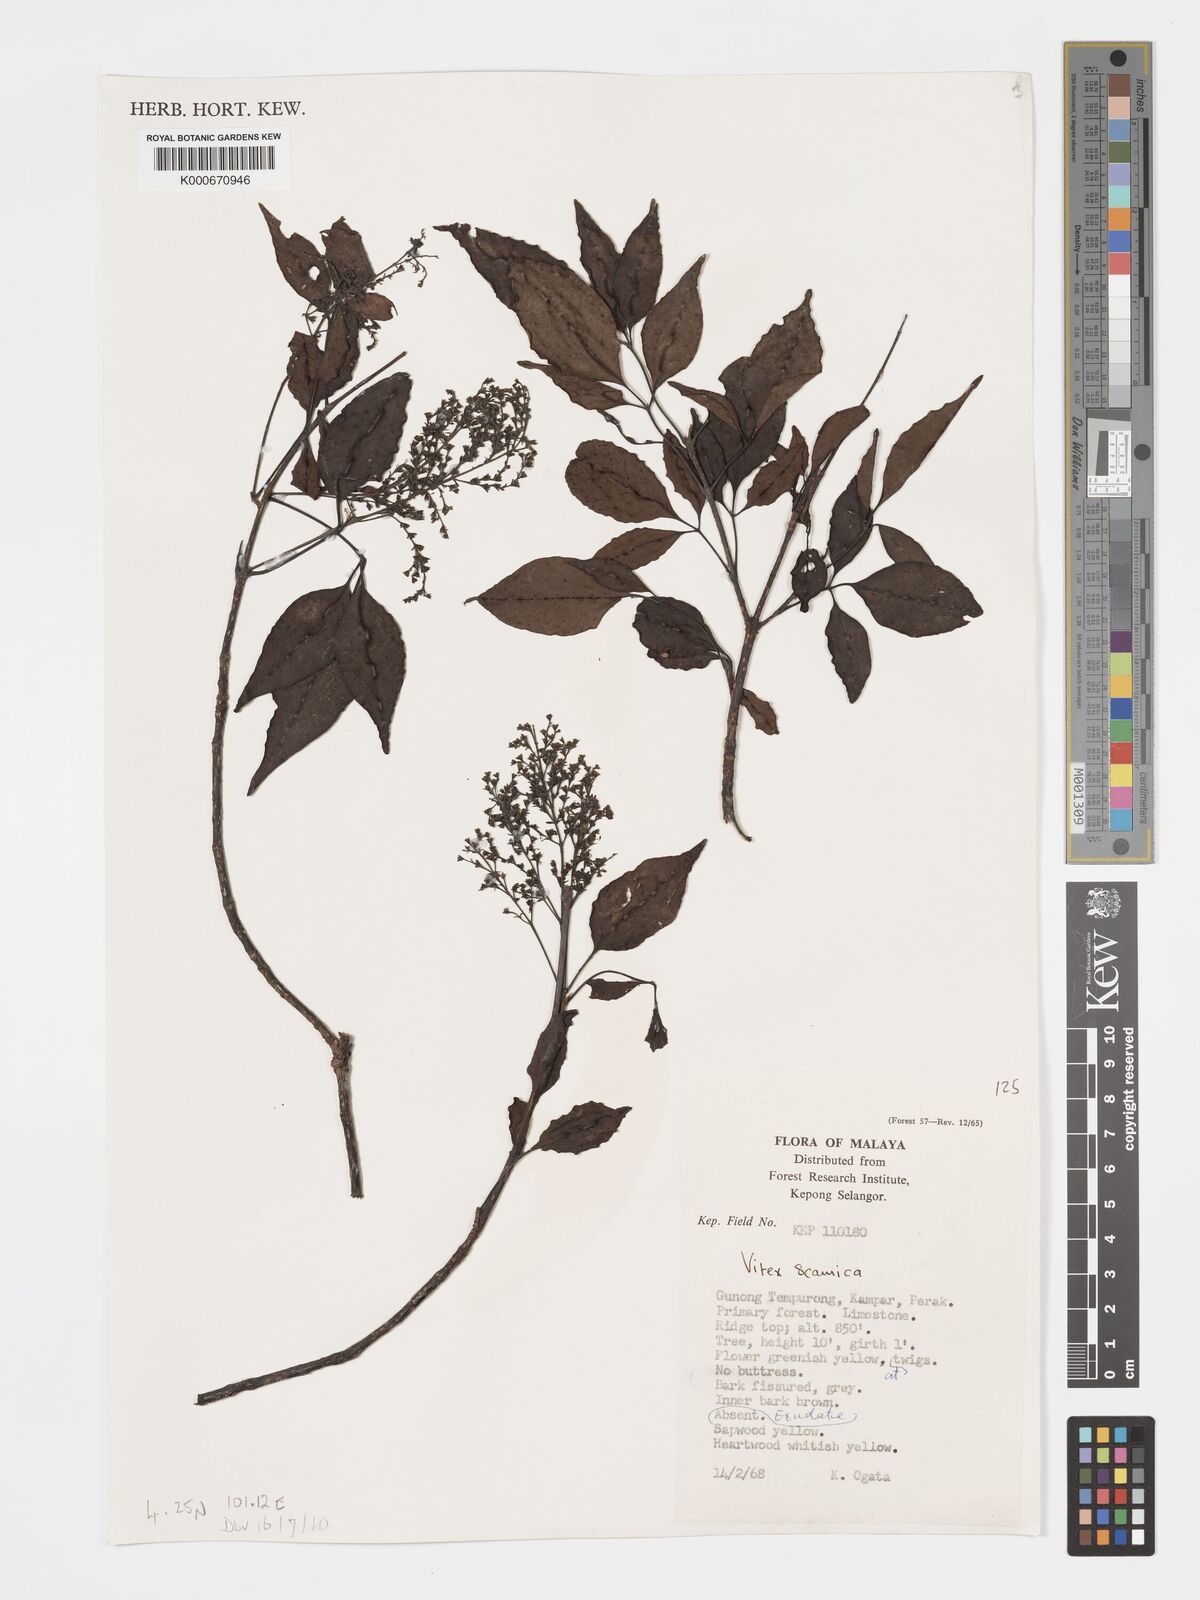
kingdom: Plantae
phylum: Tracheophyta
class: Magnoliopsida
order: Lamiales
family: Lamiaceae
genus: Vitex
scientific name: Vitex siamica
